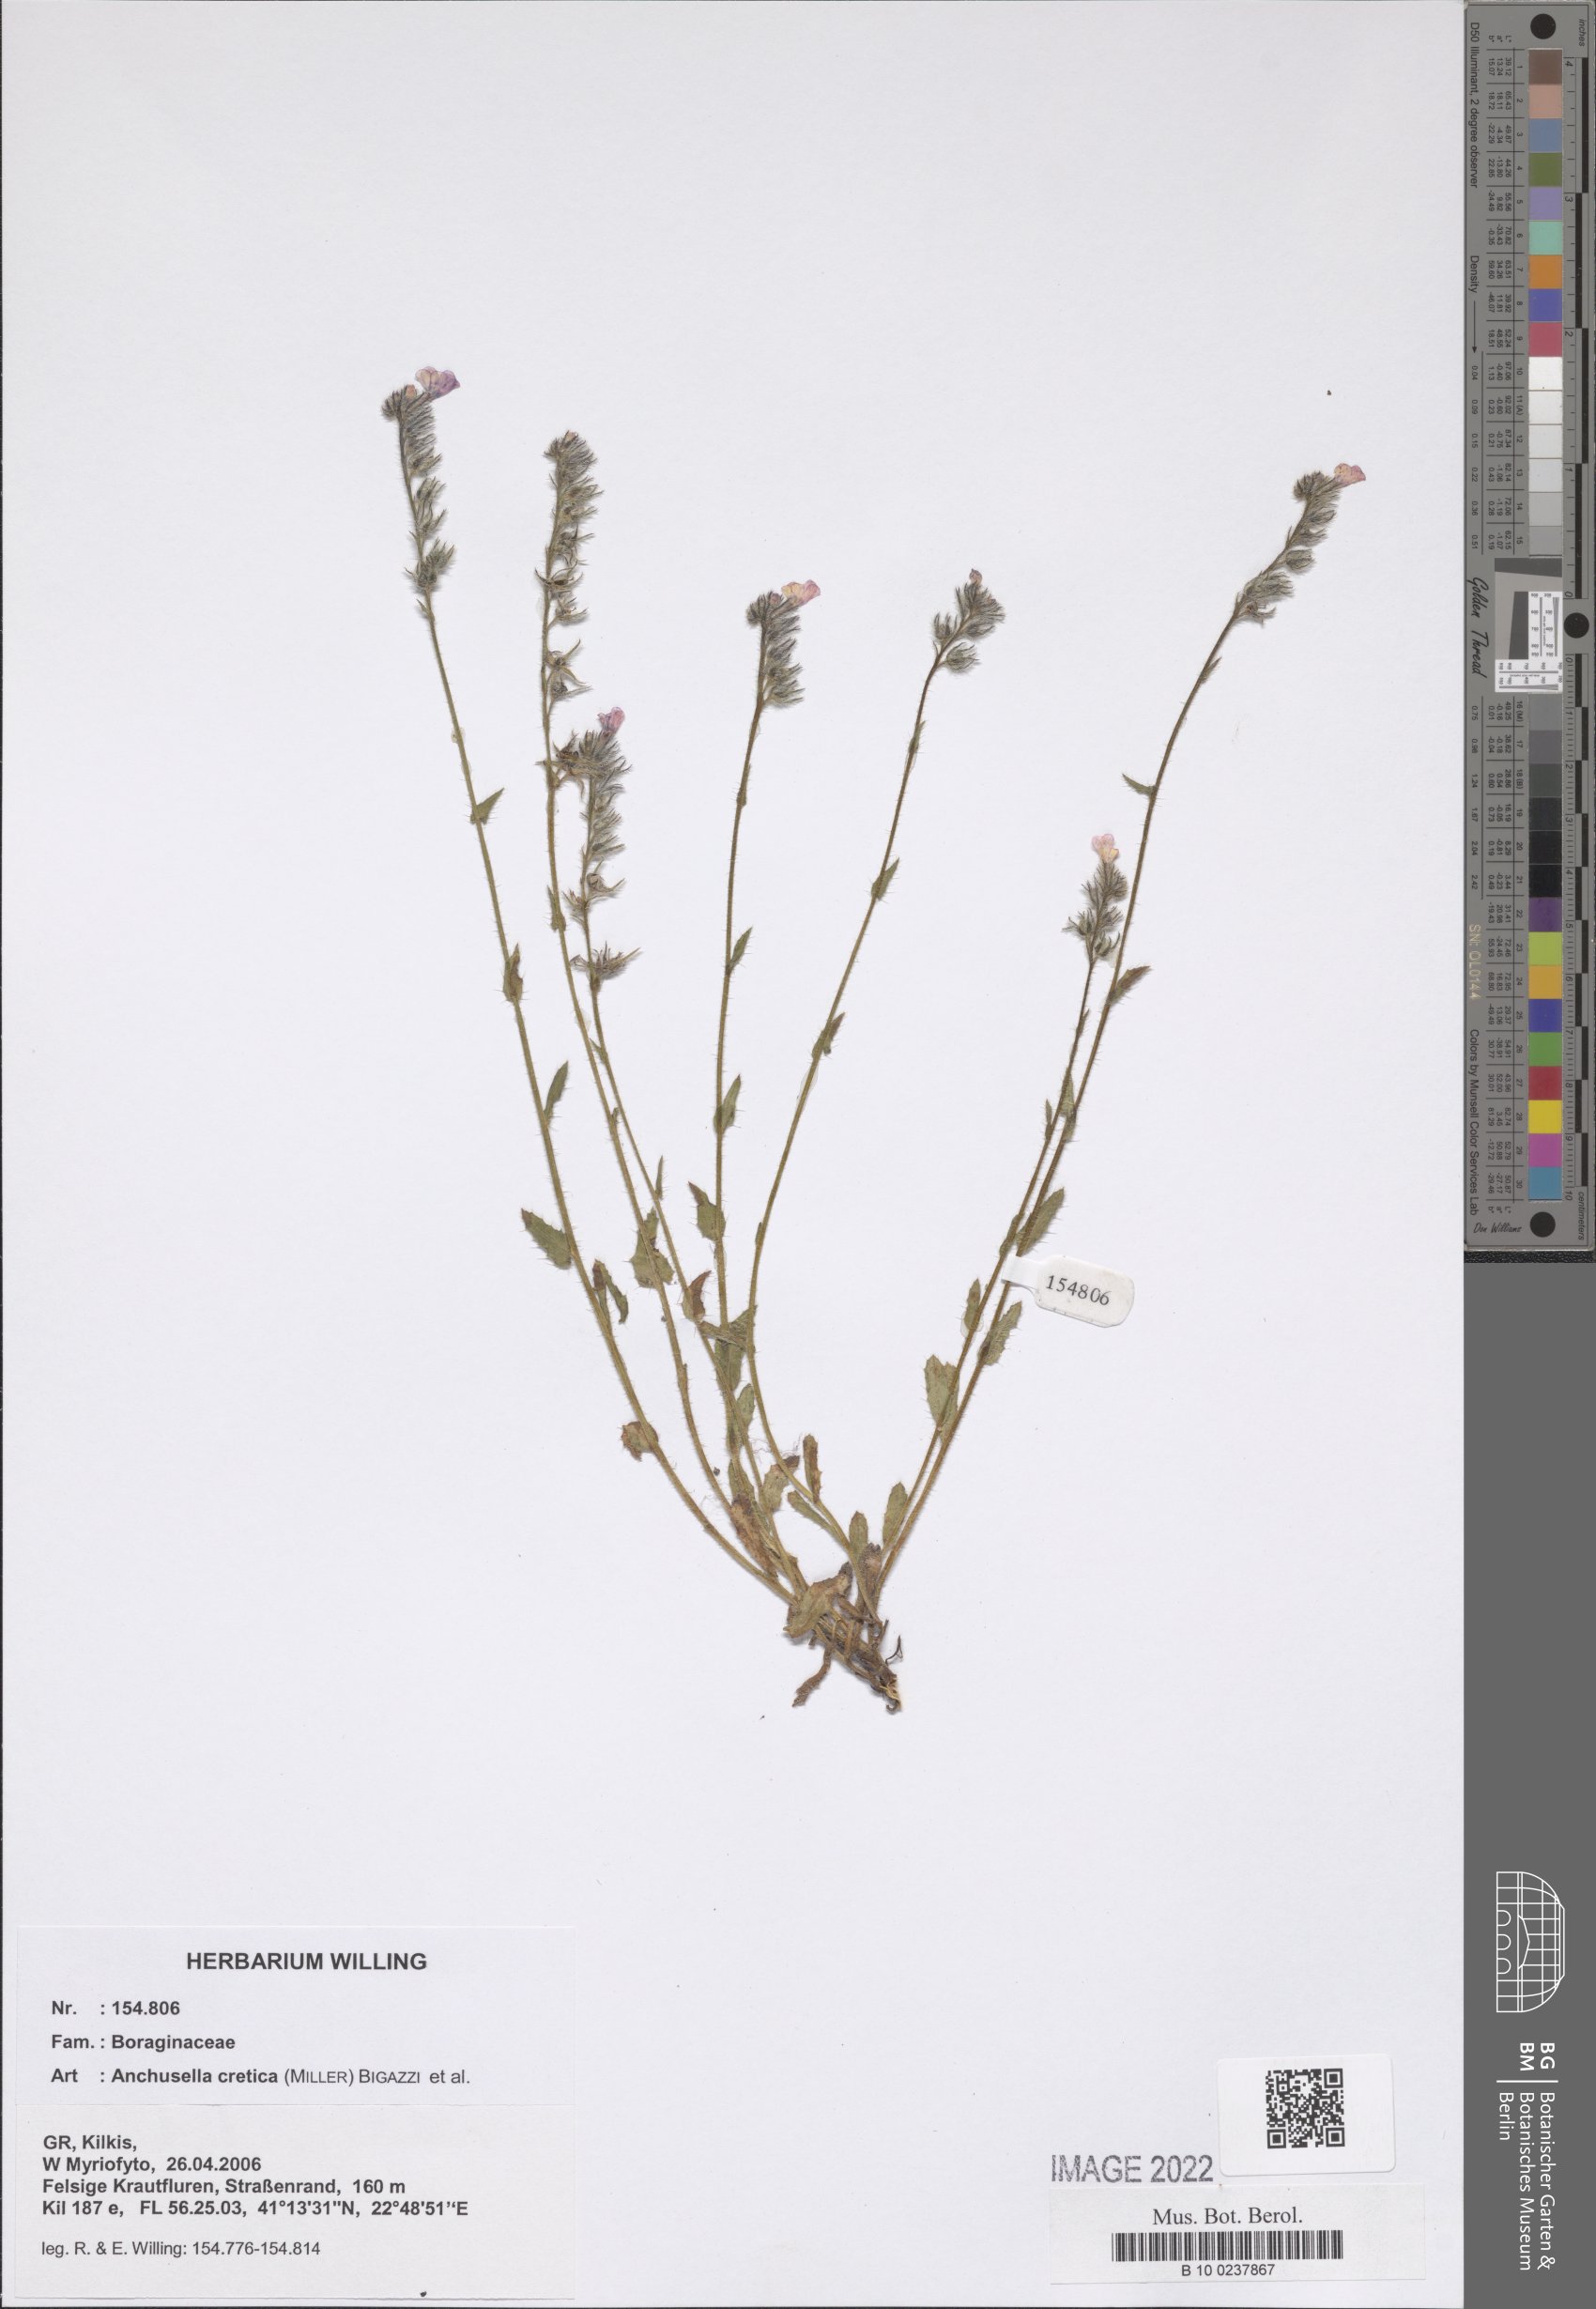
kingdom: Plantae
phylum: Tracheophyta
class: Magnoliopsida
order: Boraginales
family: Boraginaceae
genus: Lycopsis
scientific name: Lycopsis arvensis
